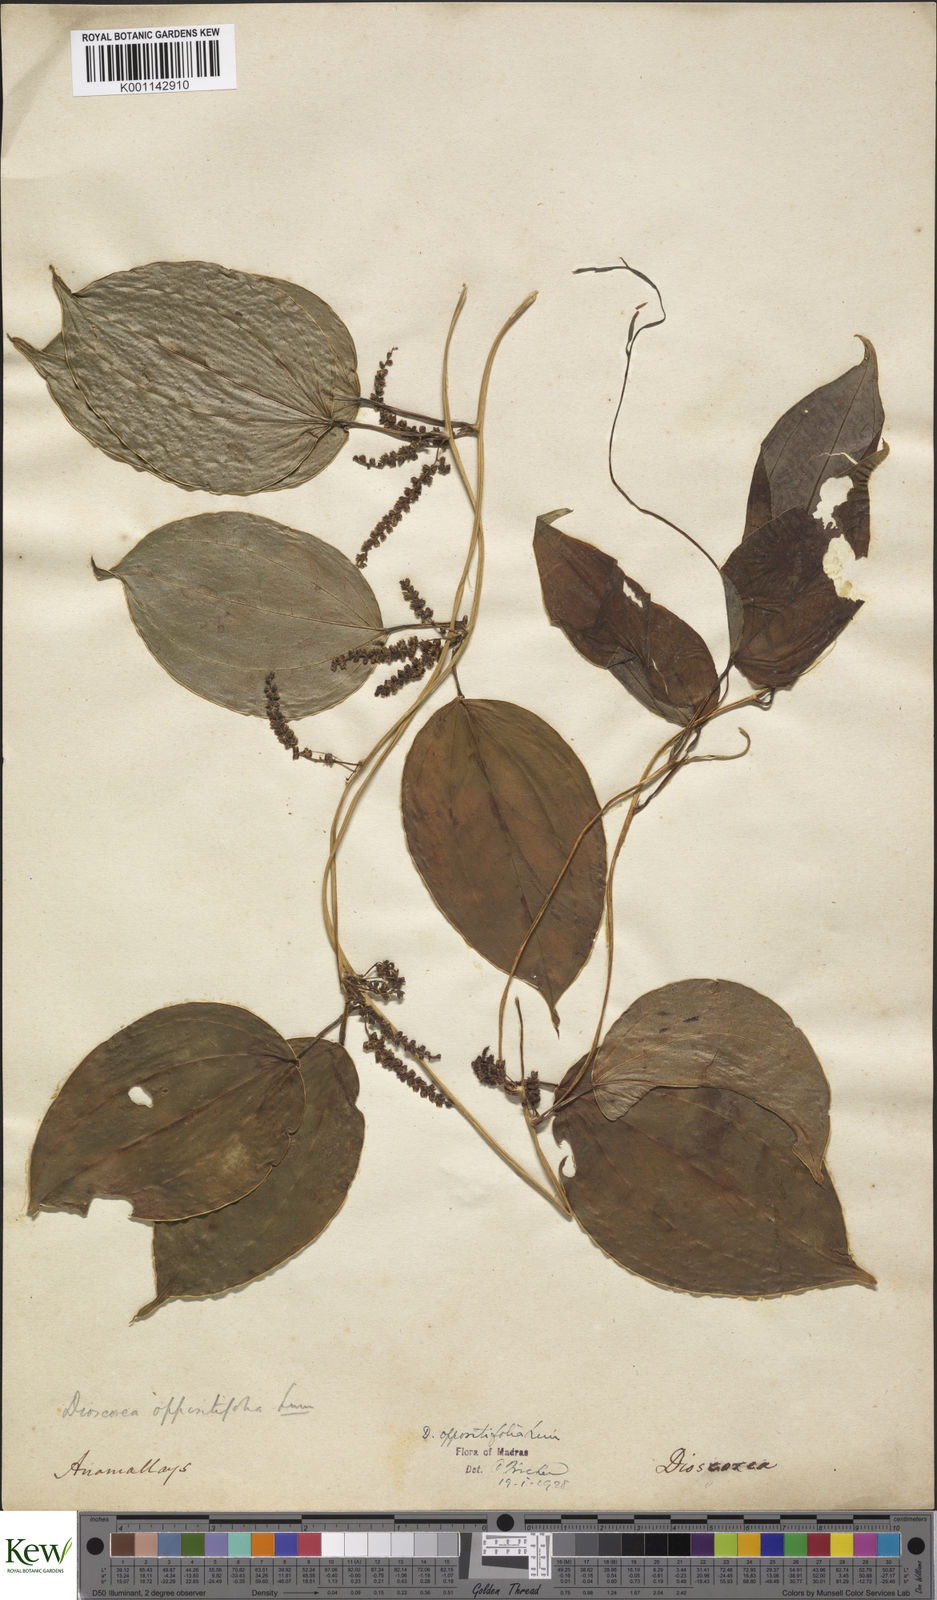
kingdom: Plantae
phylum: Tracheophyta
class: Liliopsida
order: Dioscoreales
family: Dioscoreaceae
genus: Dioscorea
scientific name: Dioscorea oppositifolia
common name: Chinese yam
